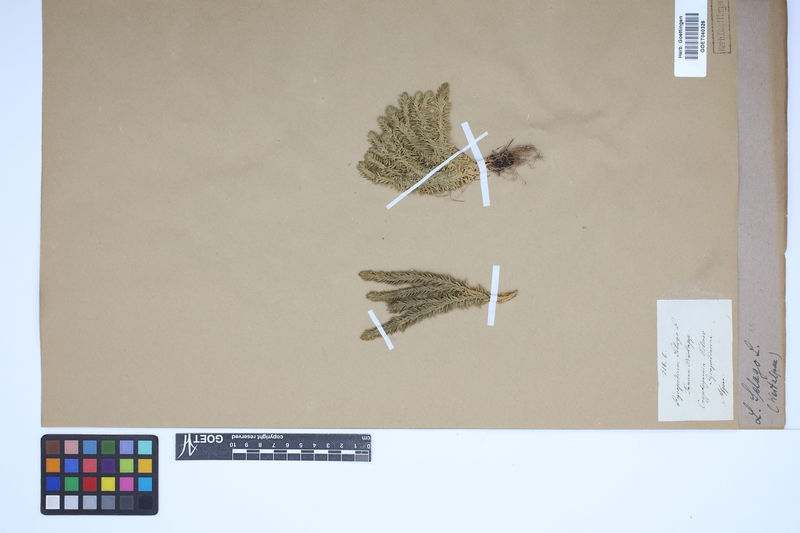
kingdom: Plantae
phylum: Tracheophyta
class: Lycopodiopsida
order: Lycopodiales
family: Lycopodiaceae
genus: Huperzia
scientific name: Huperzia selago
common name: Northern firmoss
